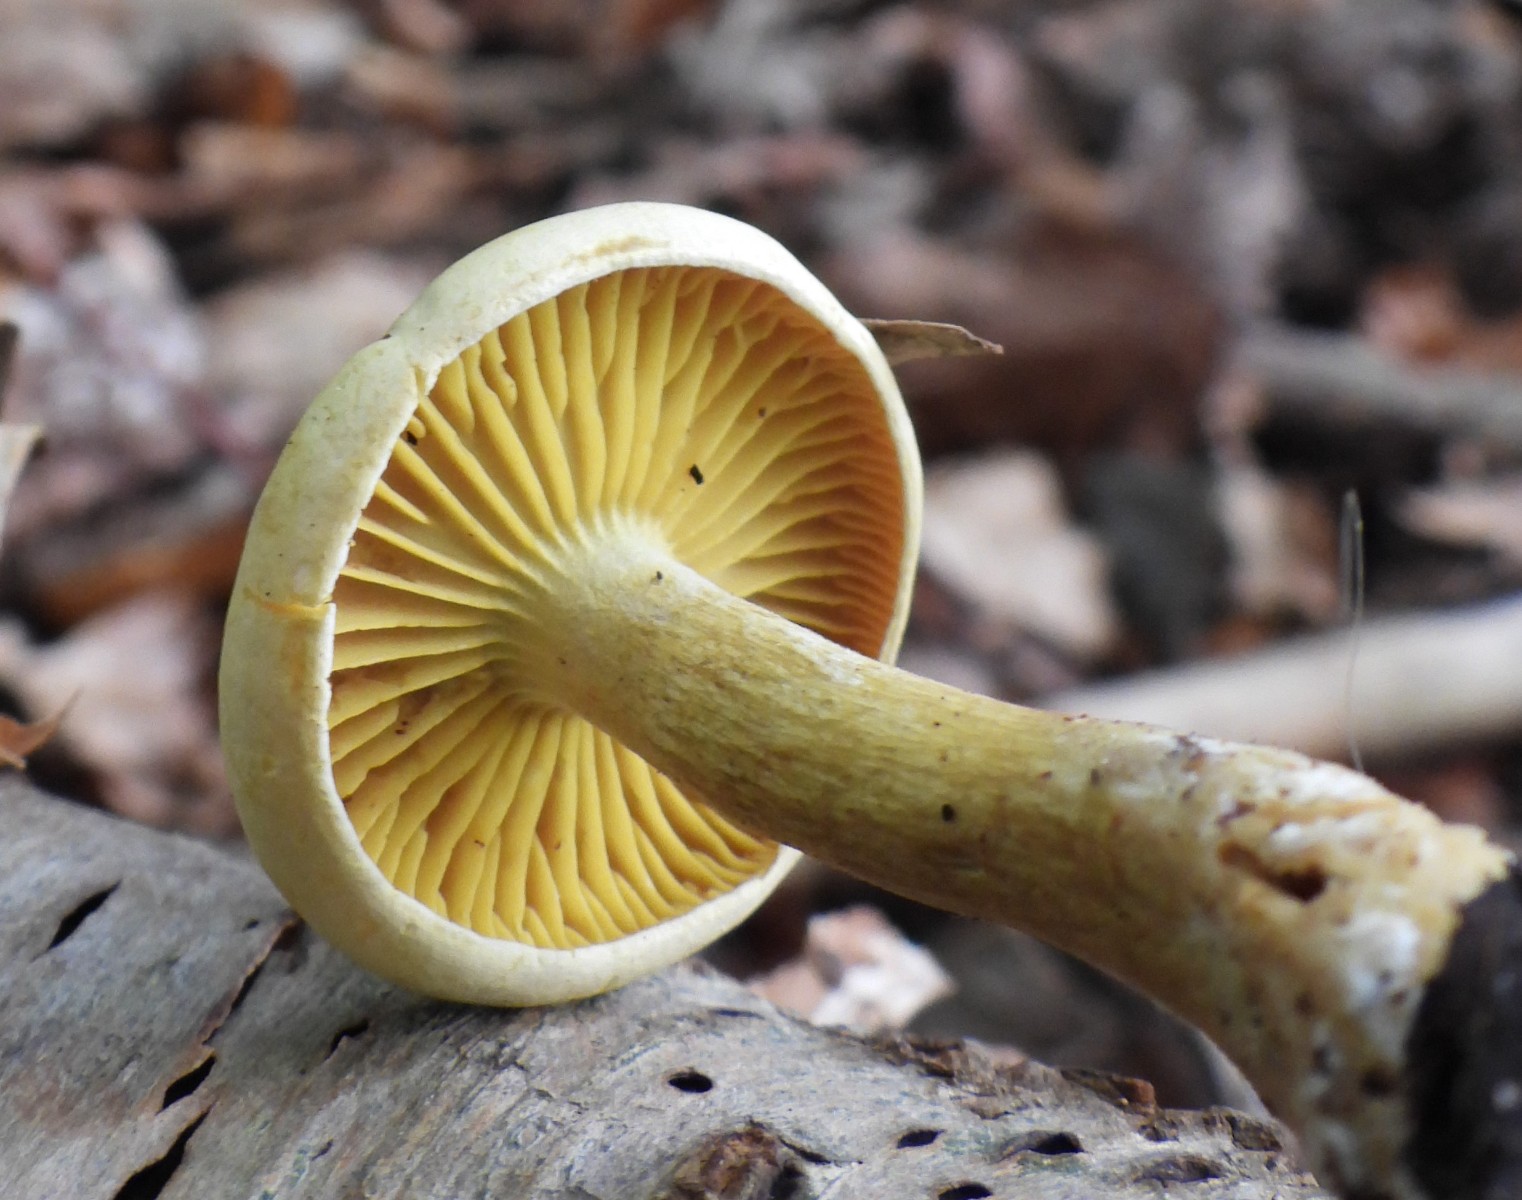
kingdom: Fungi
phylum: Basidiomycota
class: Agaricomycetes
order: Agaricales
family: Tricholomataceae
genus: Tricholoma
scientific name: Tricholoma sulphureum
